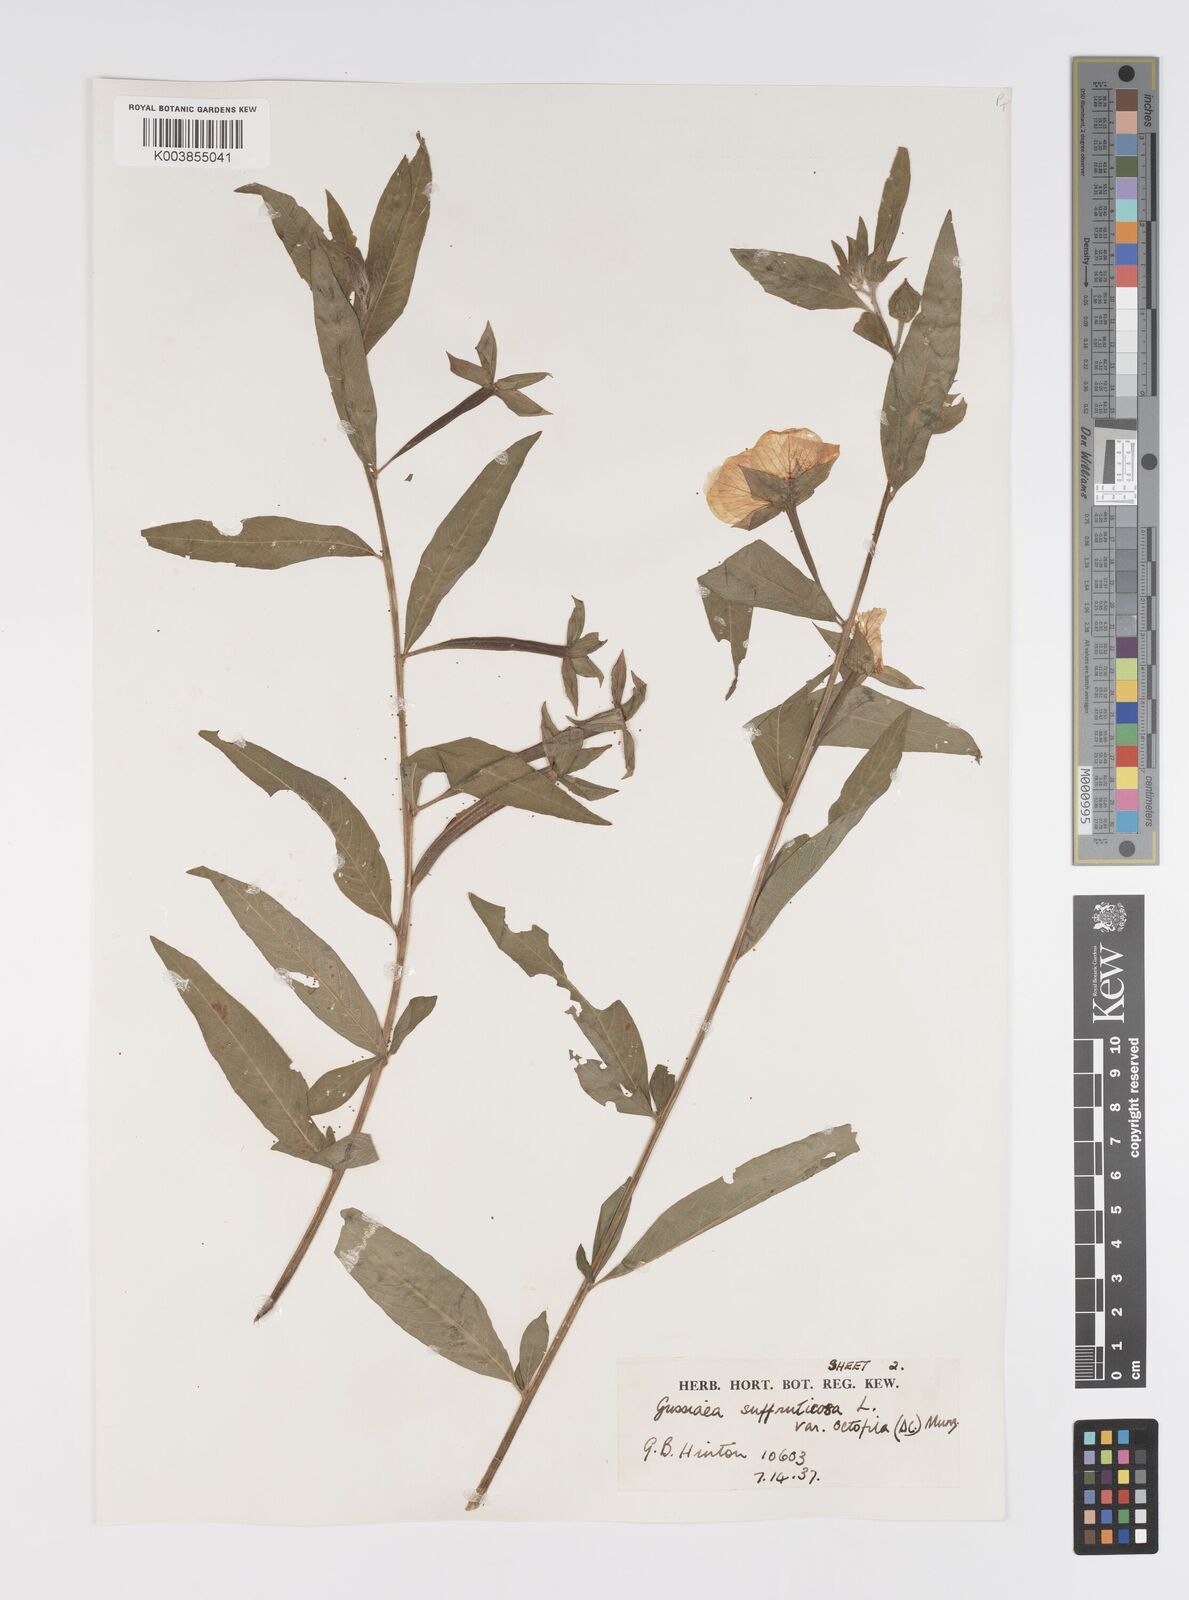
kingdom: Plantae
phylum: Tracheophyta
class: Magnoliopsida
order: Myrtales
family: Onagraceae
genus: Ludwigia
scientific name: Ludwigia octovalvis
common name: Water-primrose
